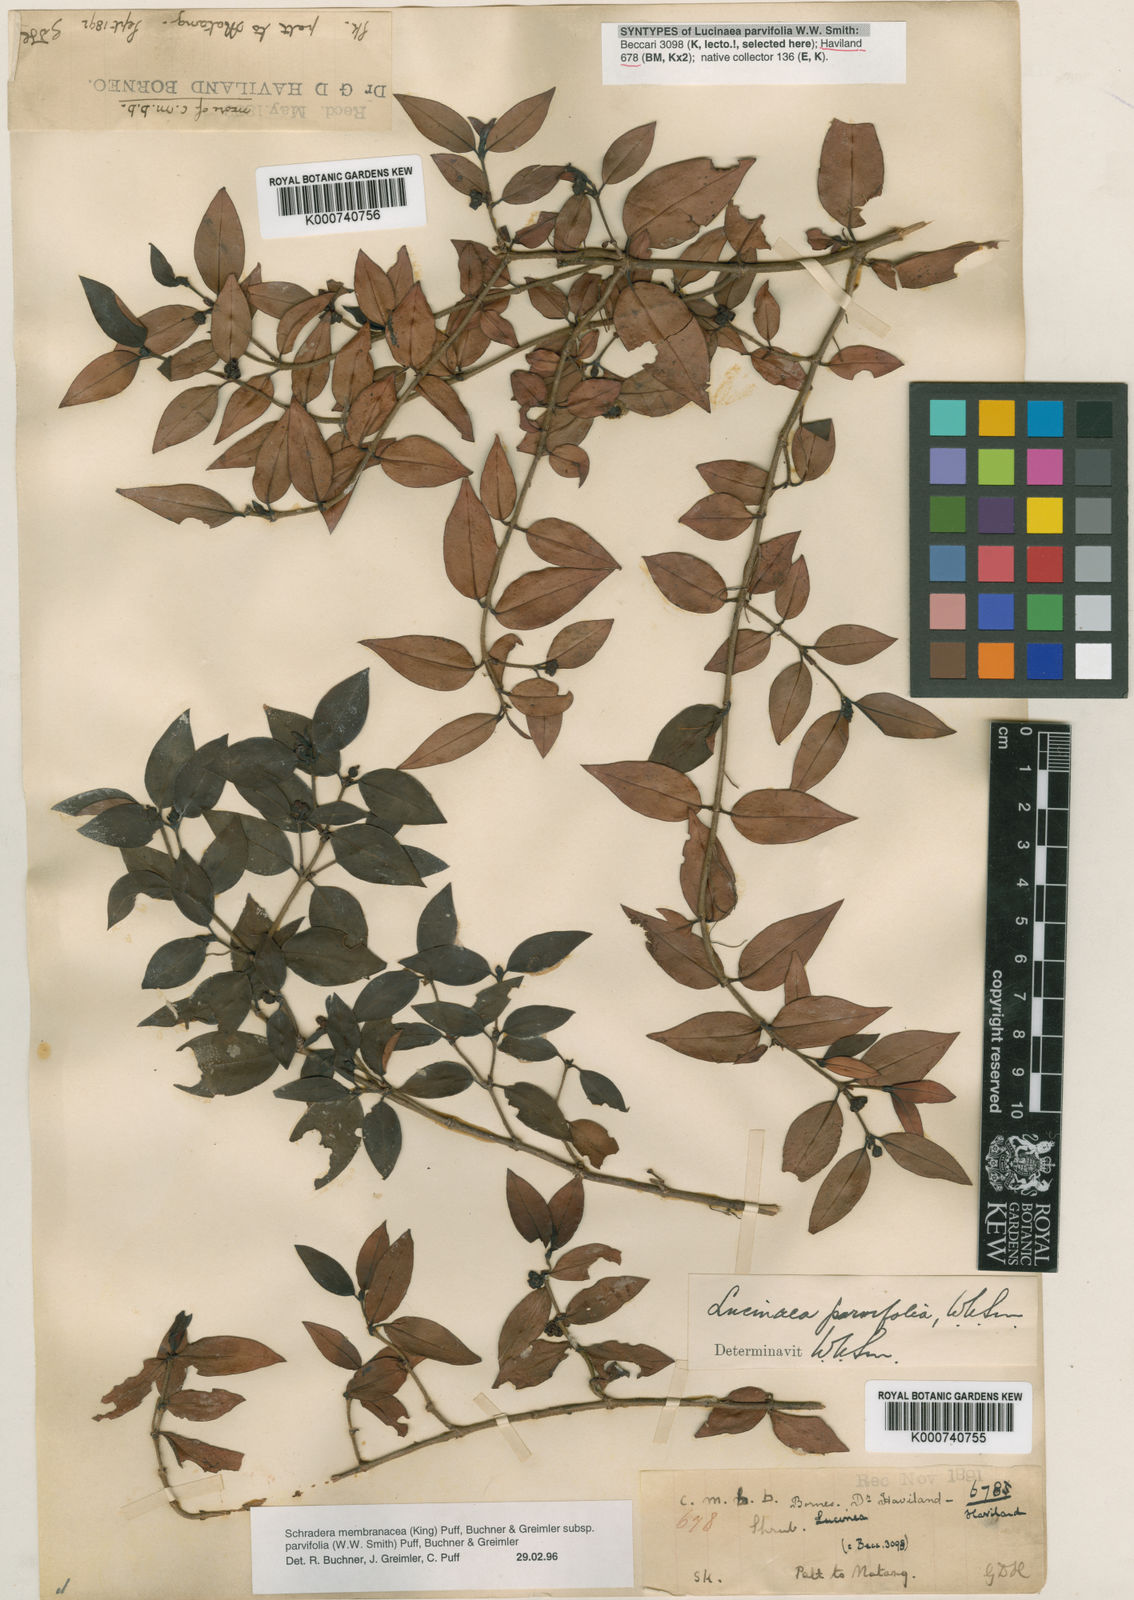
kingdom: Plantae
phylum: Tracheophyta
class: Magnoliopsida
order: Gentianales
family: Rubiaceae
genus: Schradera
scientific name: Schradera
